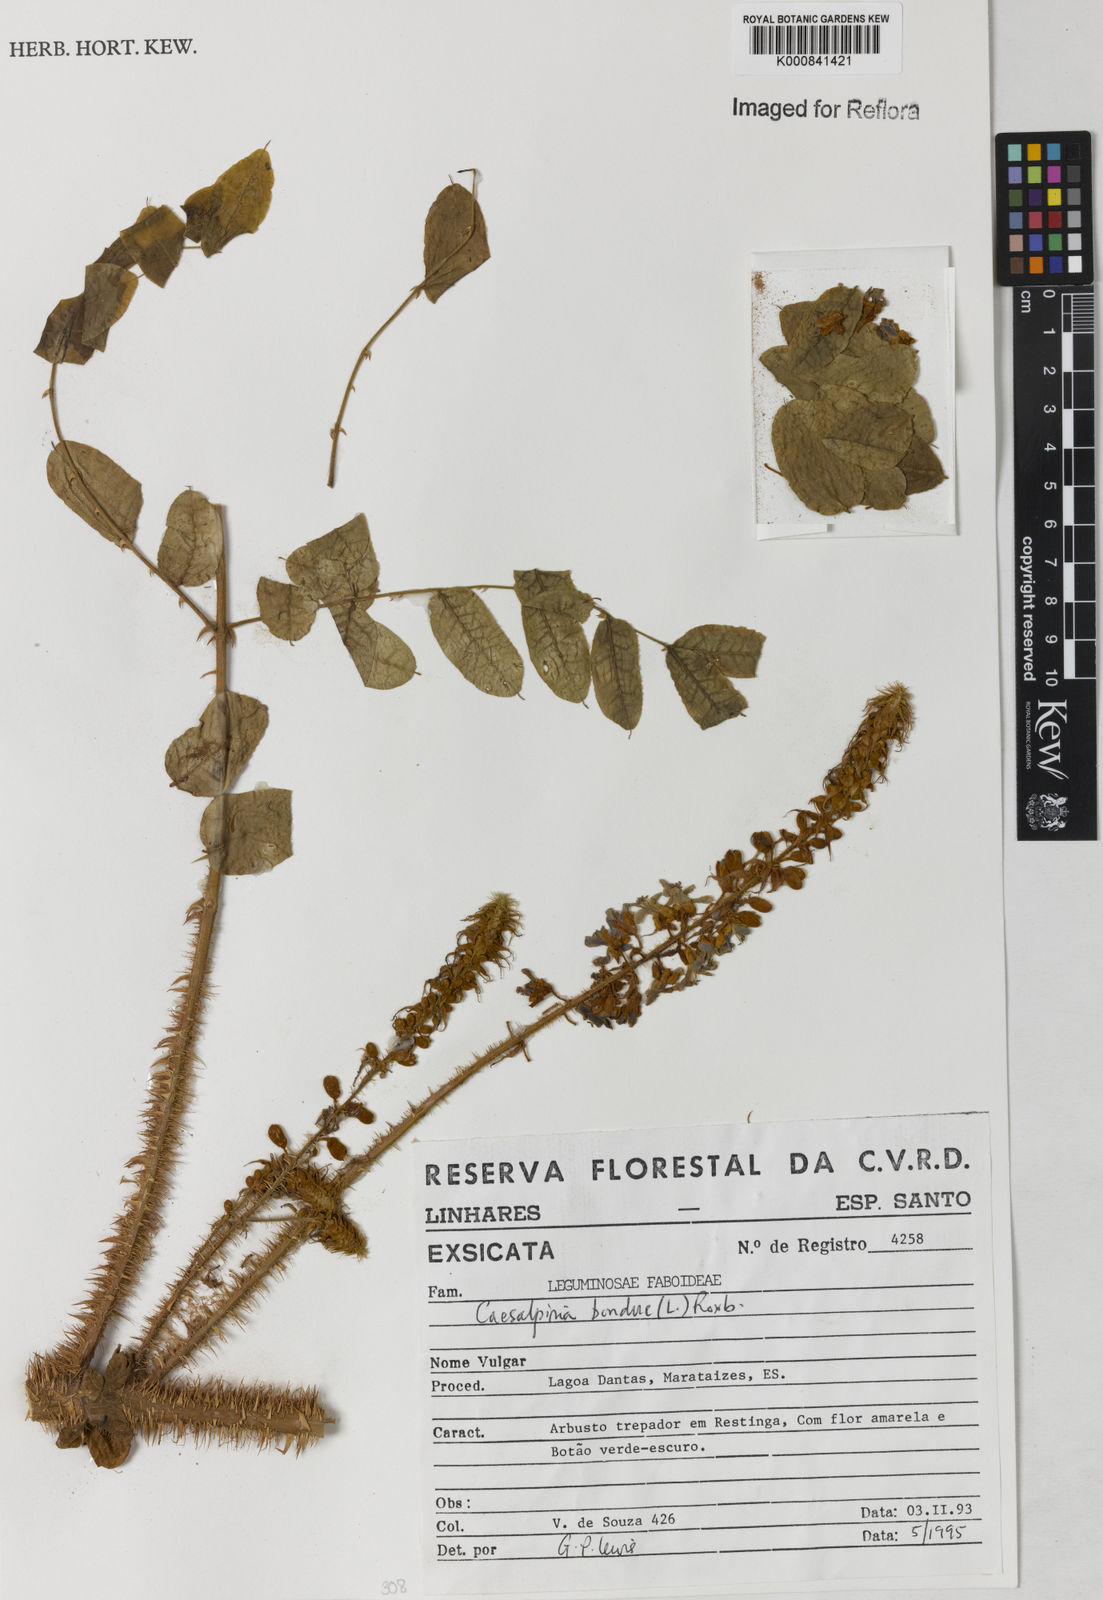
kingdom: Plantae
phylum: Tracheophyta
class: Magnoliopsida
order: Fabales
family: Fabaceae
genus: Guilandina
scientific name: Guilandina bonduc
